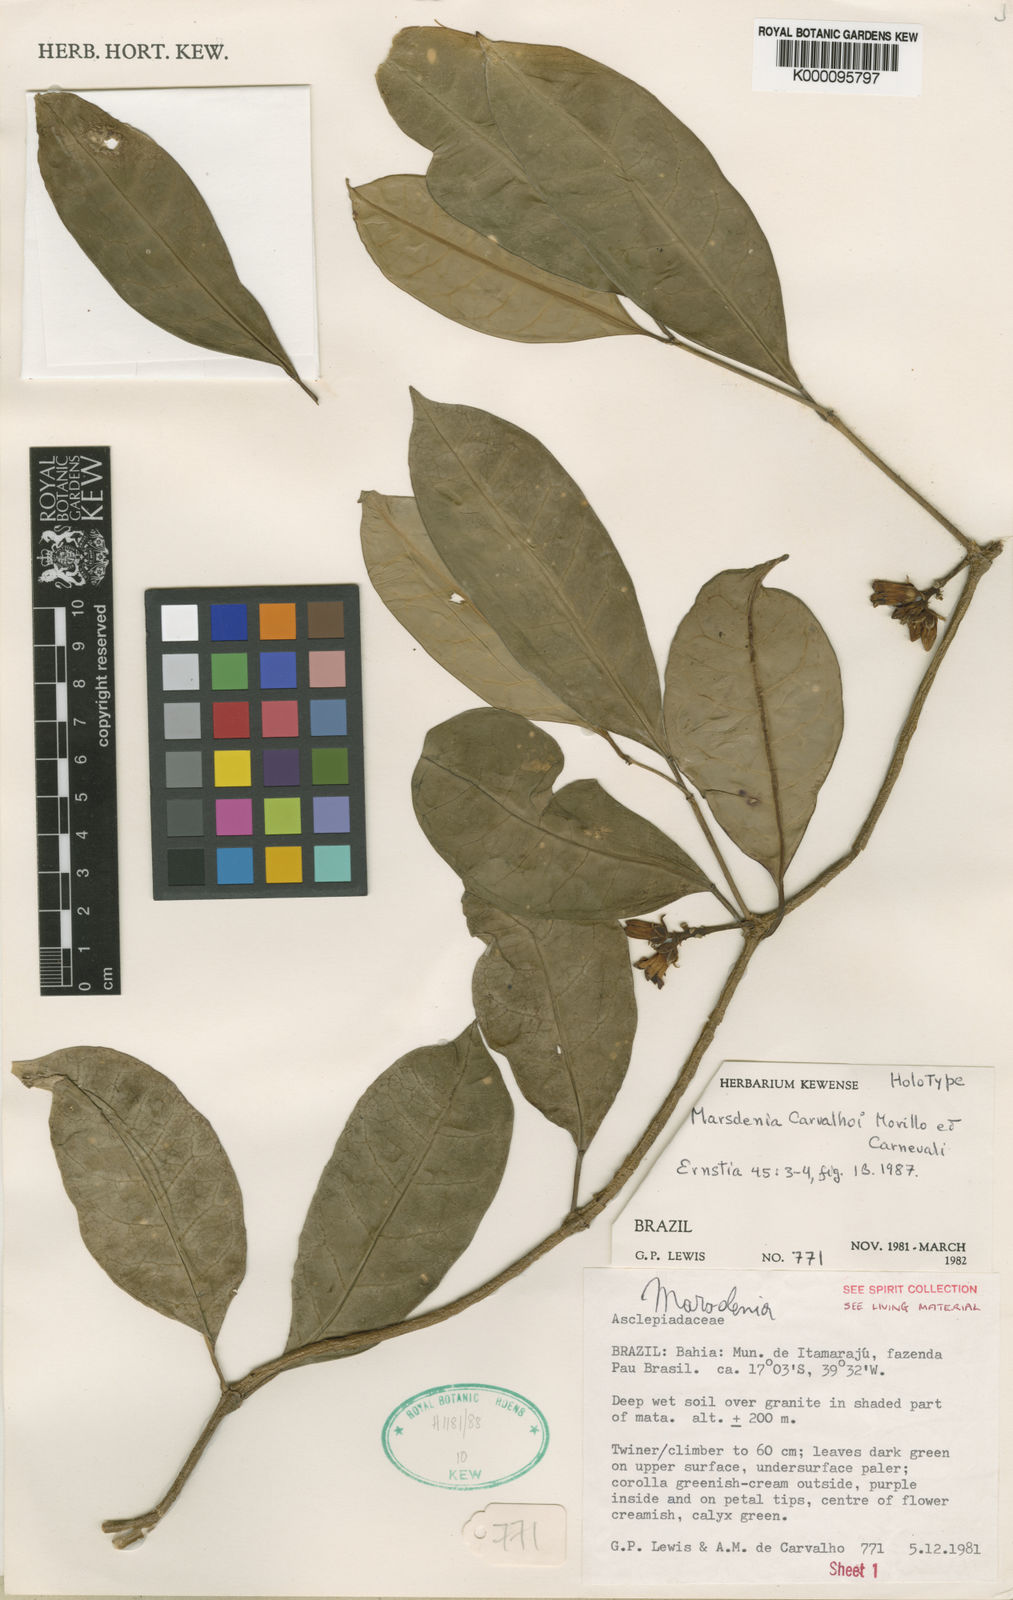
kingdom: Plantae
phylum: Tracheophyta
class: Magnoliopsida
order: Gentianales
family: Apocynaceae
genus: Ruehssia
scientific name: Ruehssia carvalhoi
